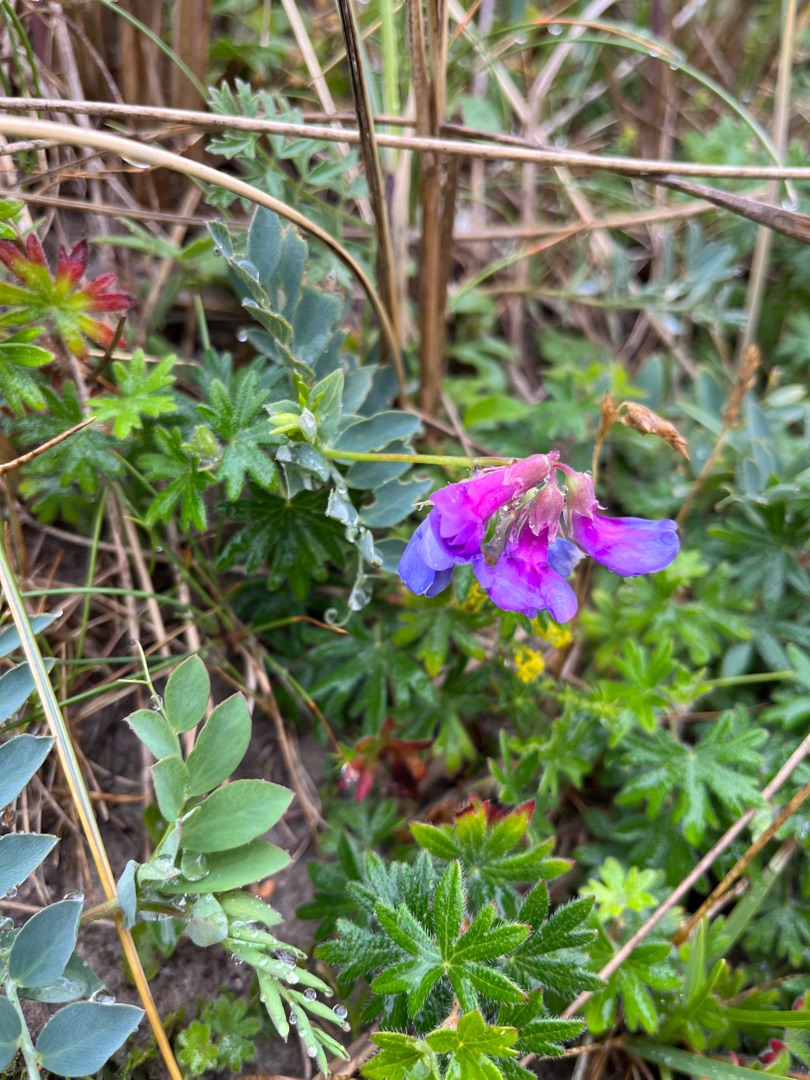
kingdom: Plantae
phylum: Tracheophyta
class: Magnoliopsida
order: Fabales
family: Fabaceae
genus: Lathyrus
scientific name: Lathyrus japonicus
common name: Klit-fladbælg
